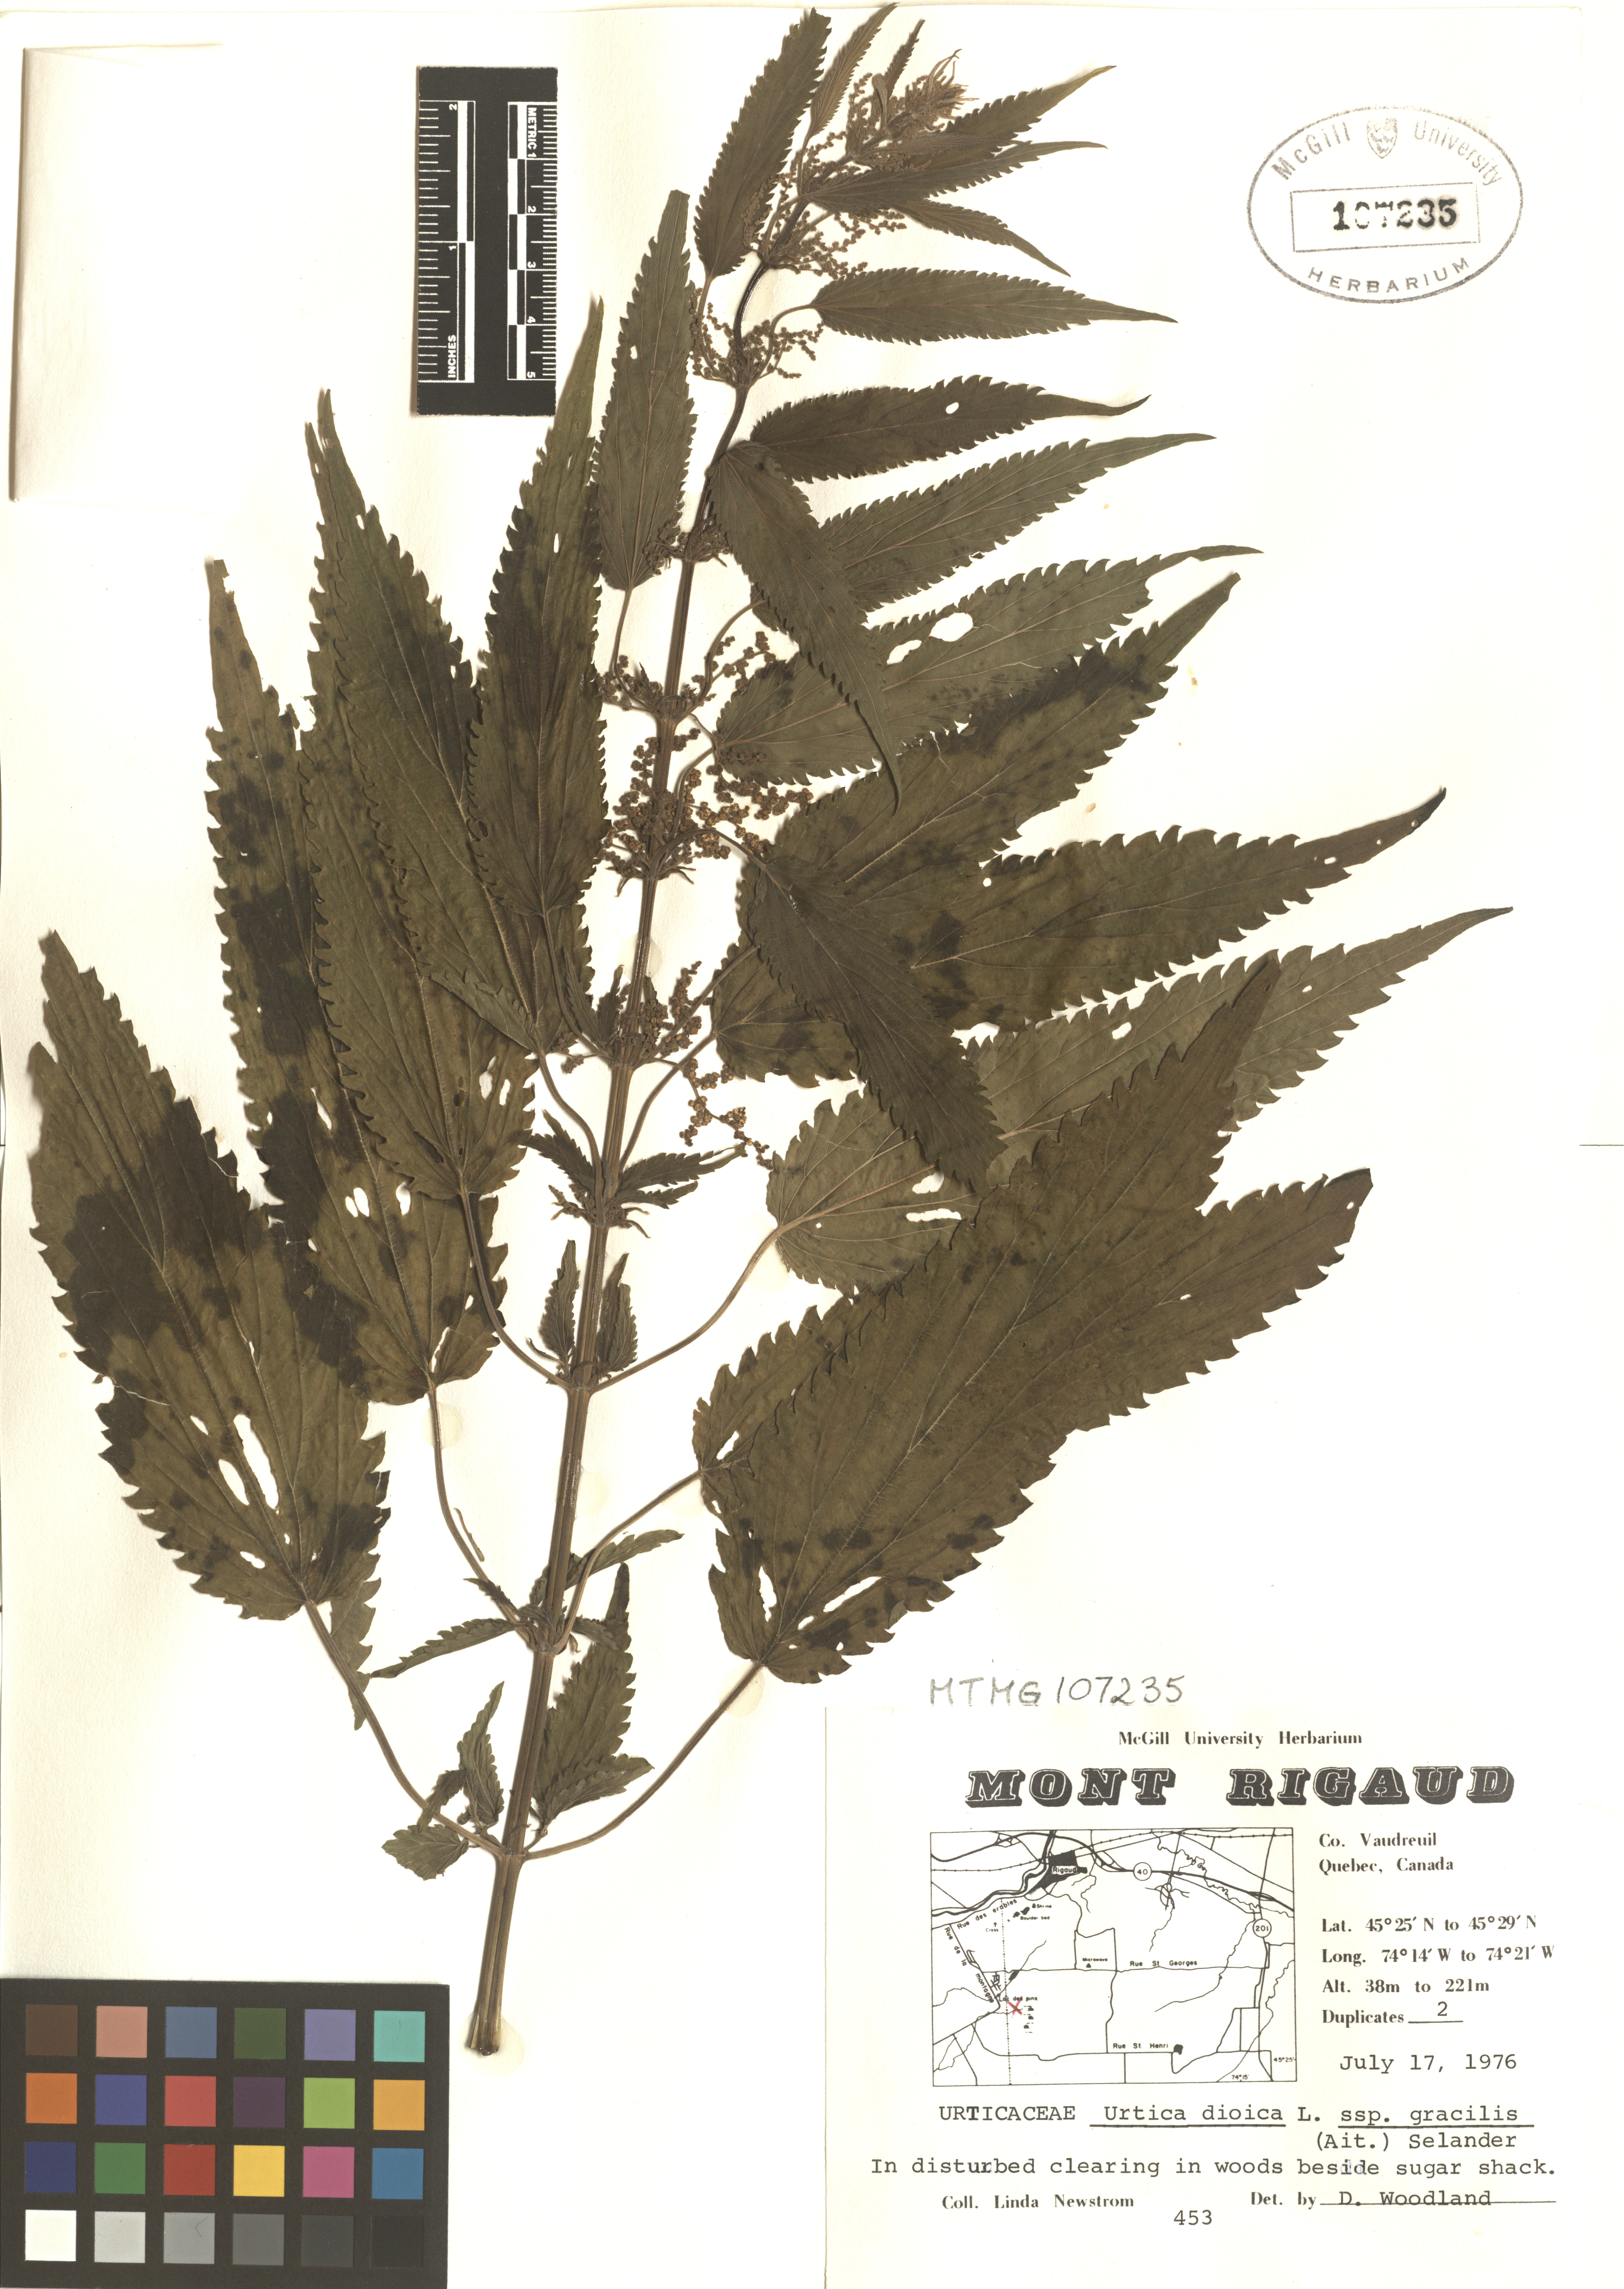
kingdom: Plantae
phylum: Tracheophyta
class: Magnoliopsida
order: Rosales
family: Urticaceae
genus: Urtica
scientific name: Urtica gracilis
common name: Slender stinging nettle
